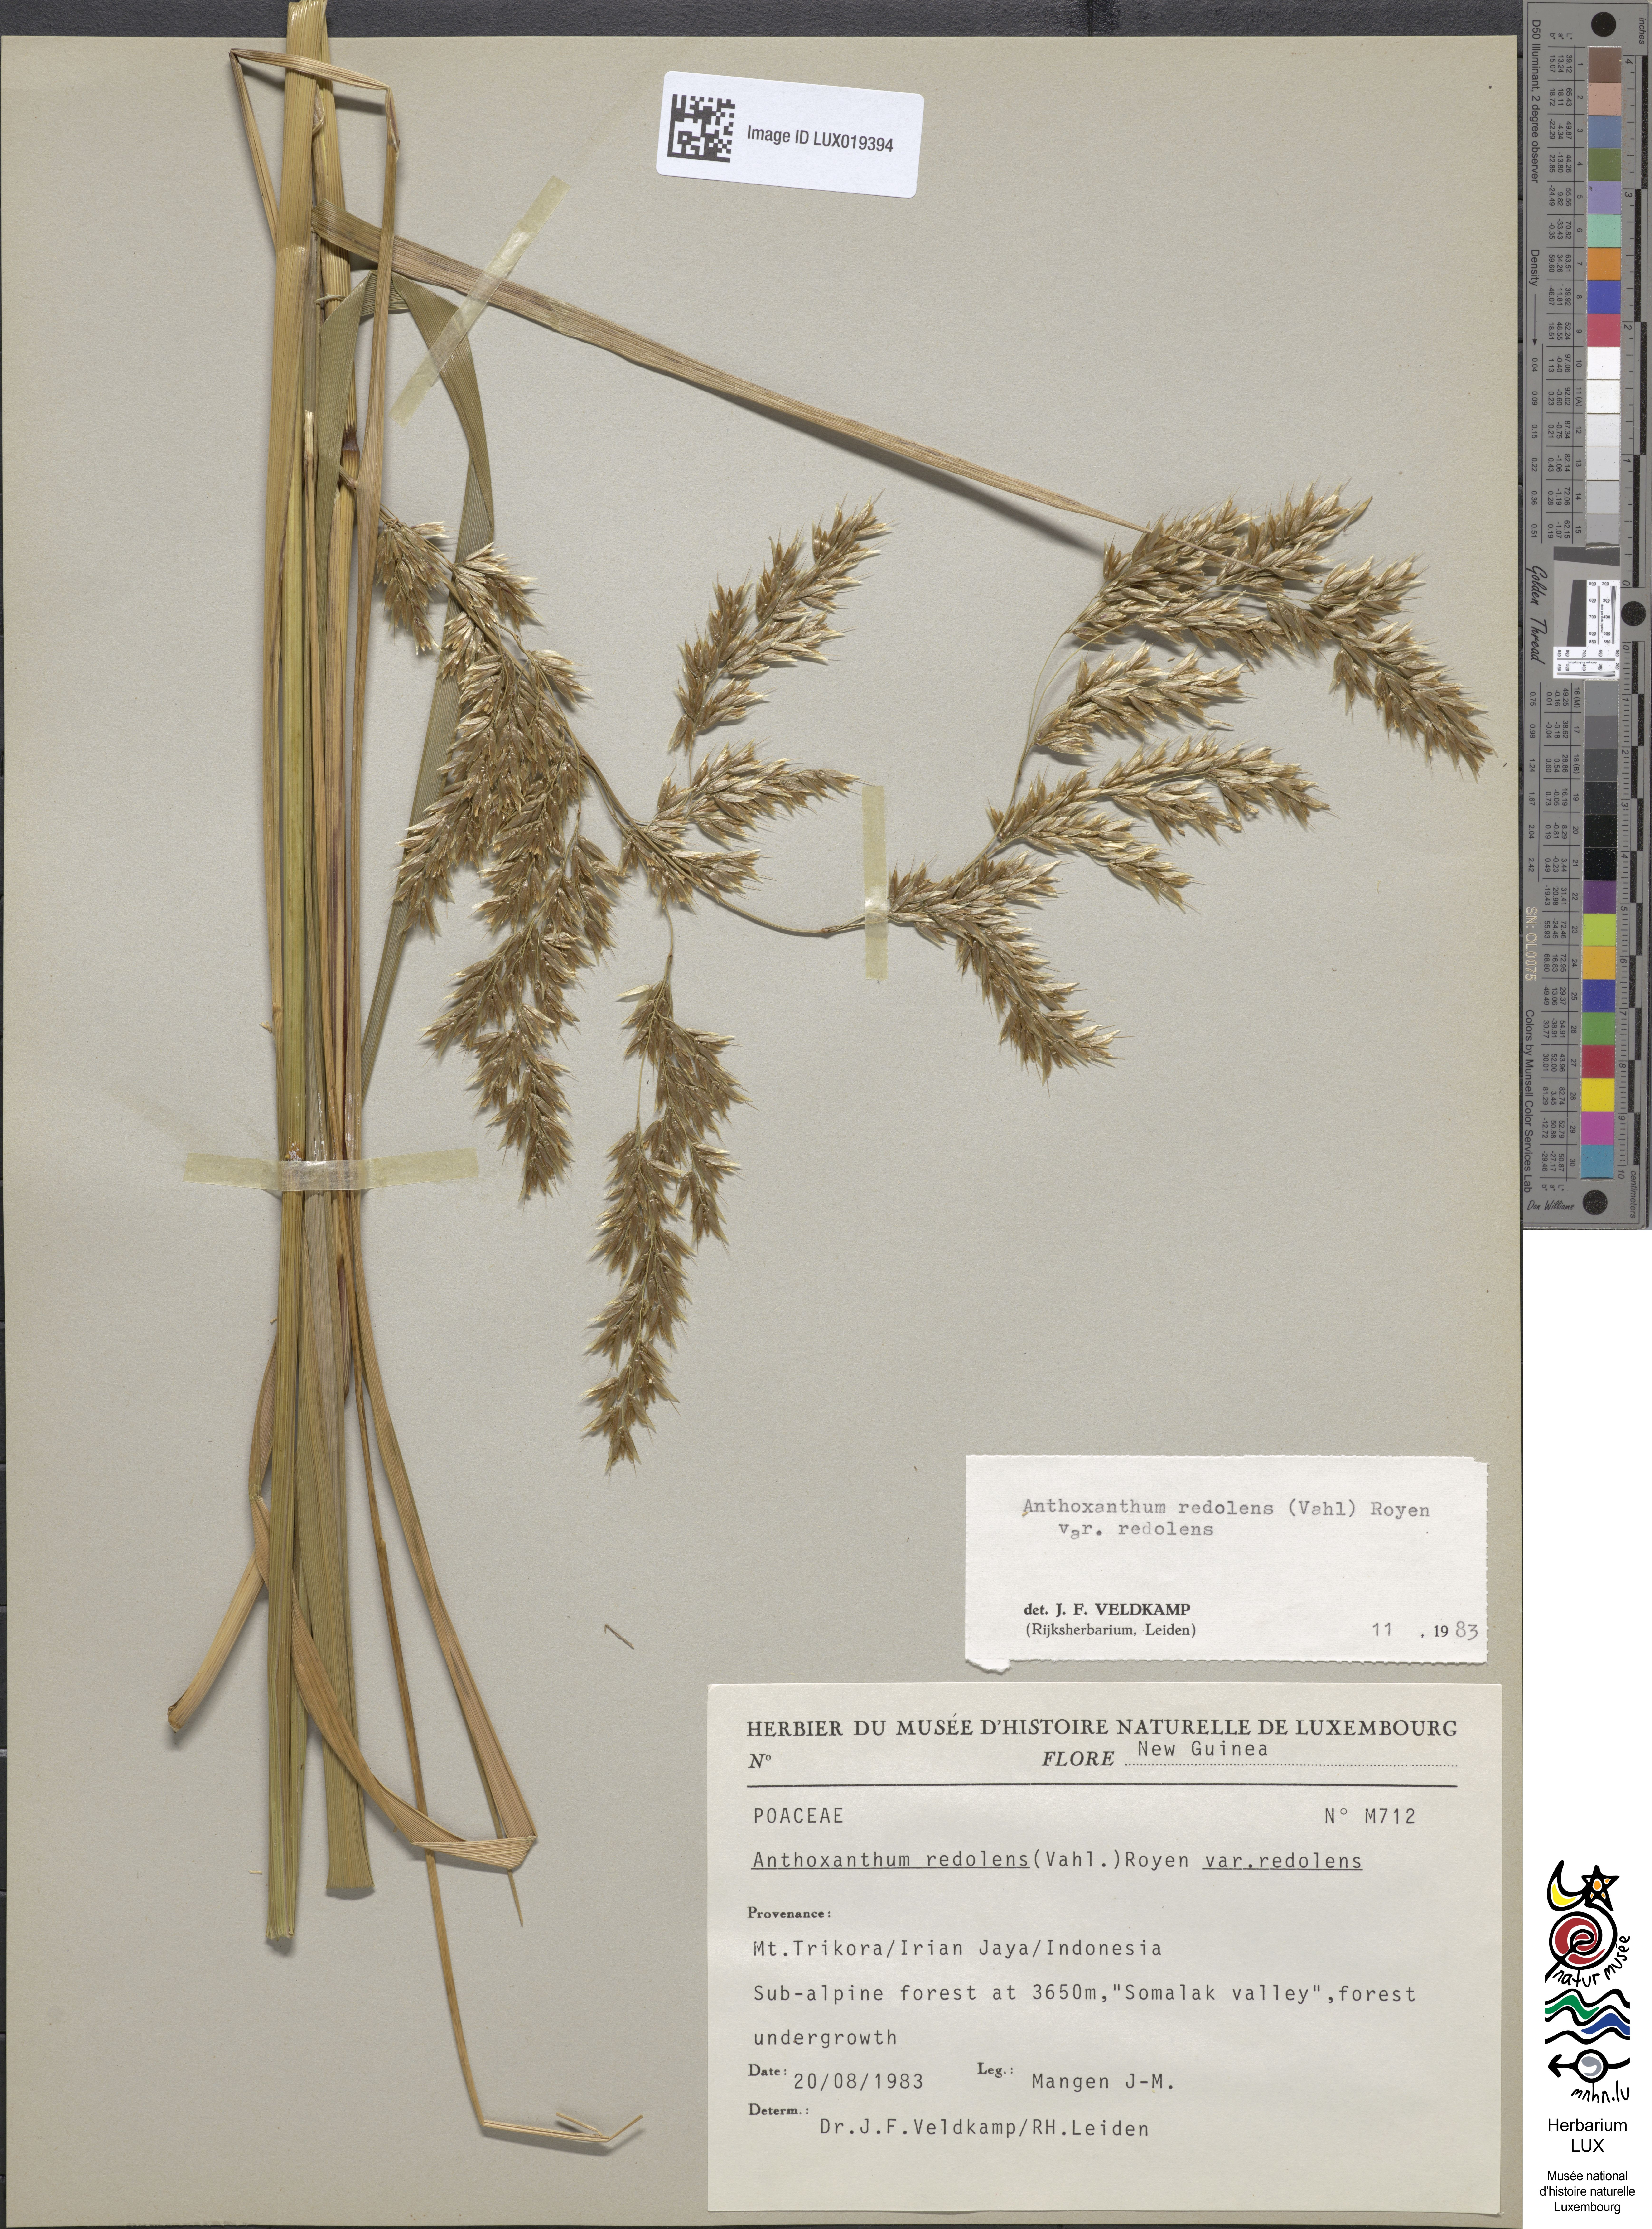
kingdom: Plantae
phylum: Tracheophyta
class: Liliopsida
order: Poales
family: Poaceae
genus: Anthoxanthum
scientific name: Anthoxanthum redolens
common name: Sweet holy grass
